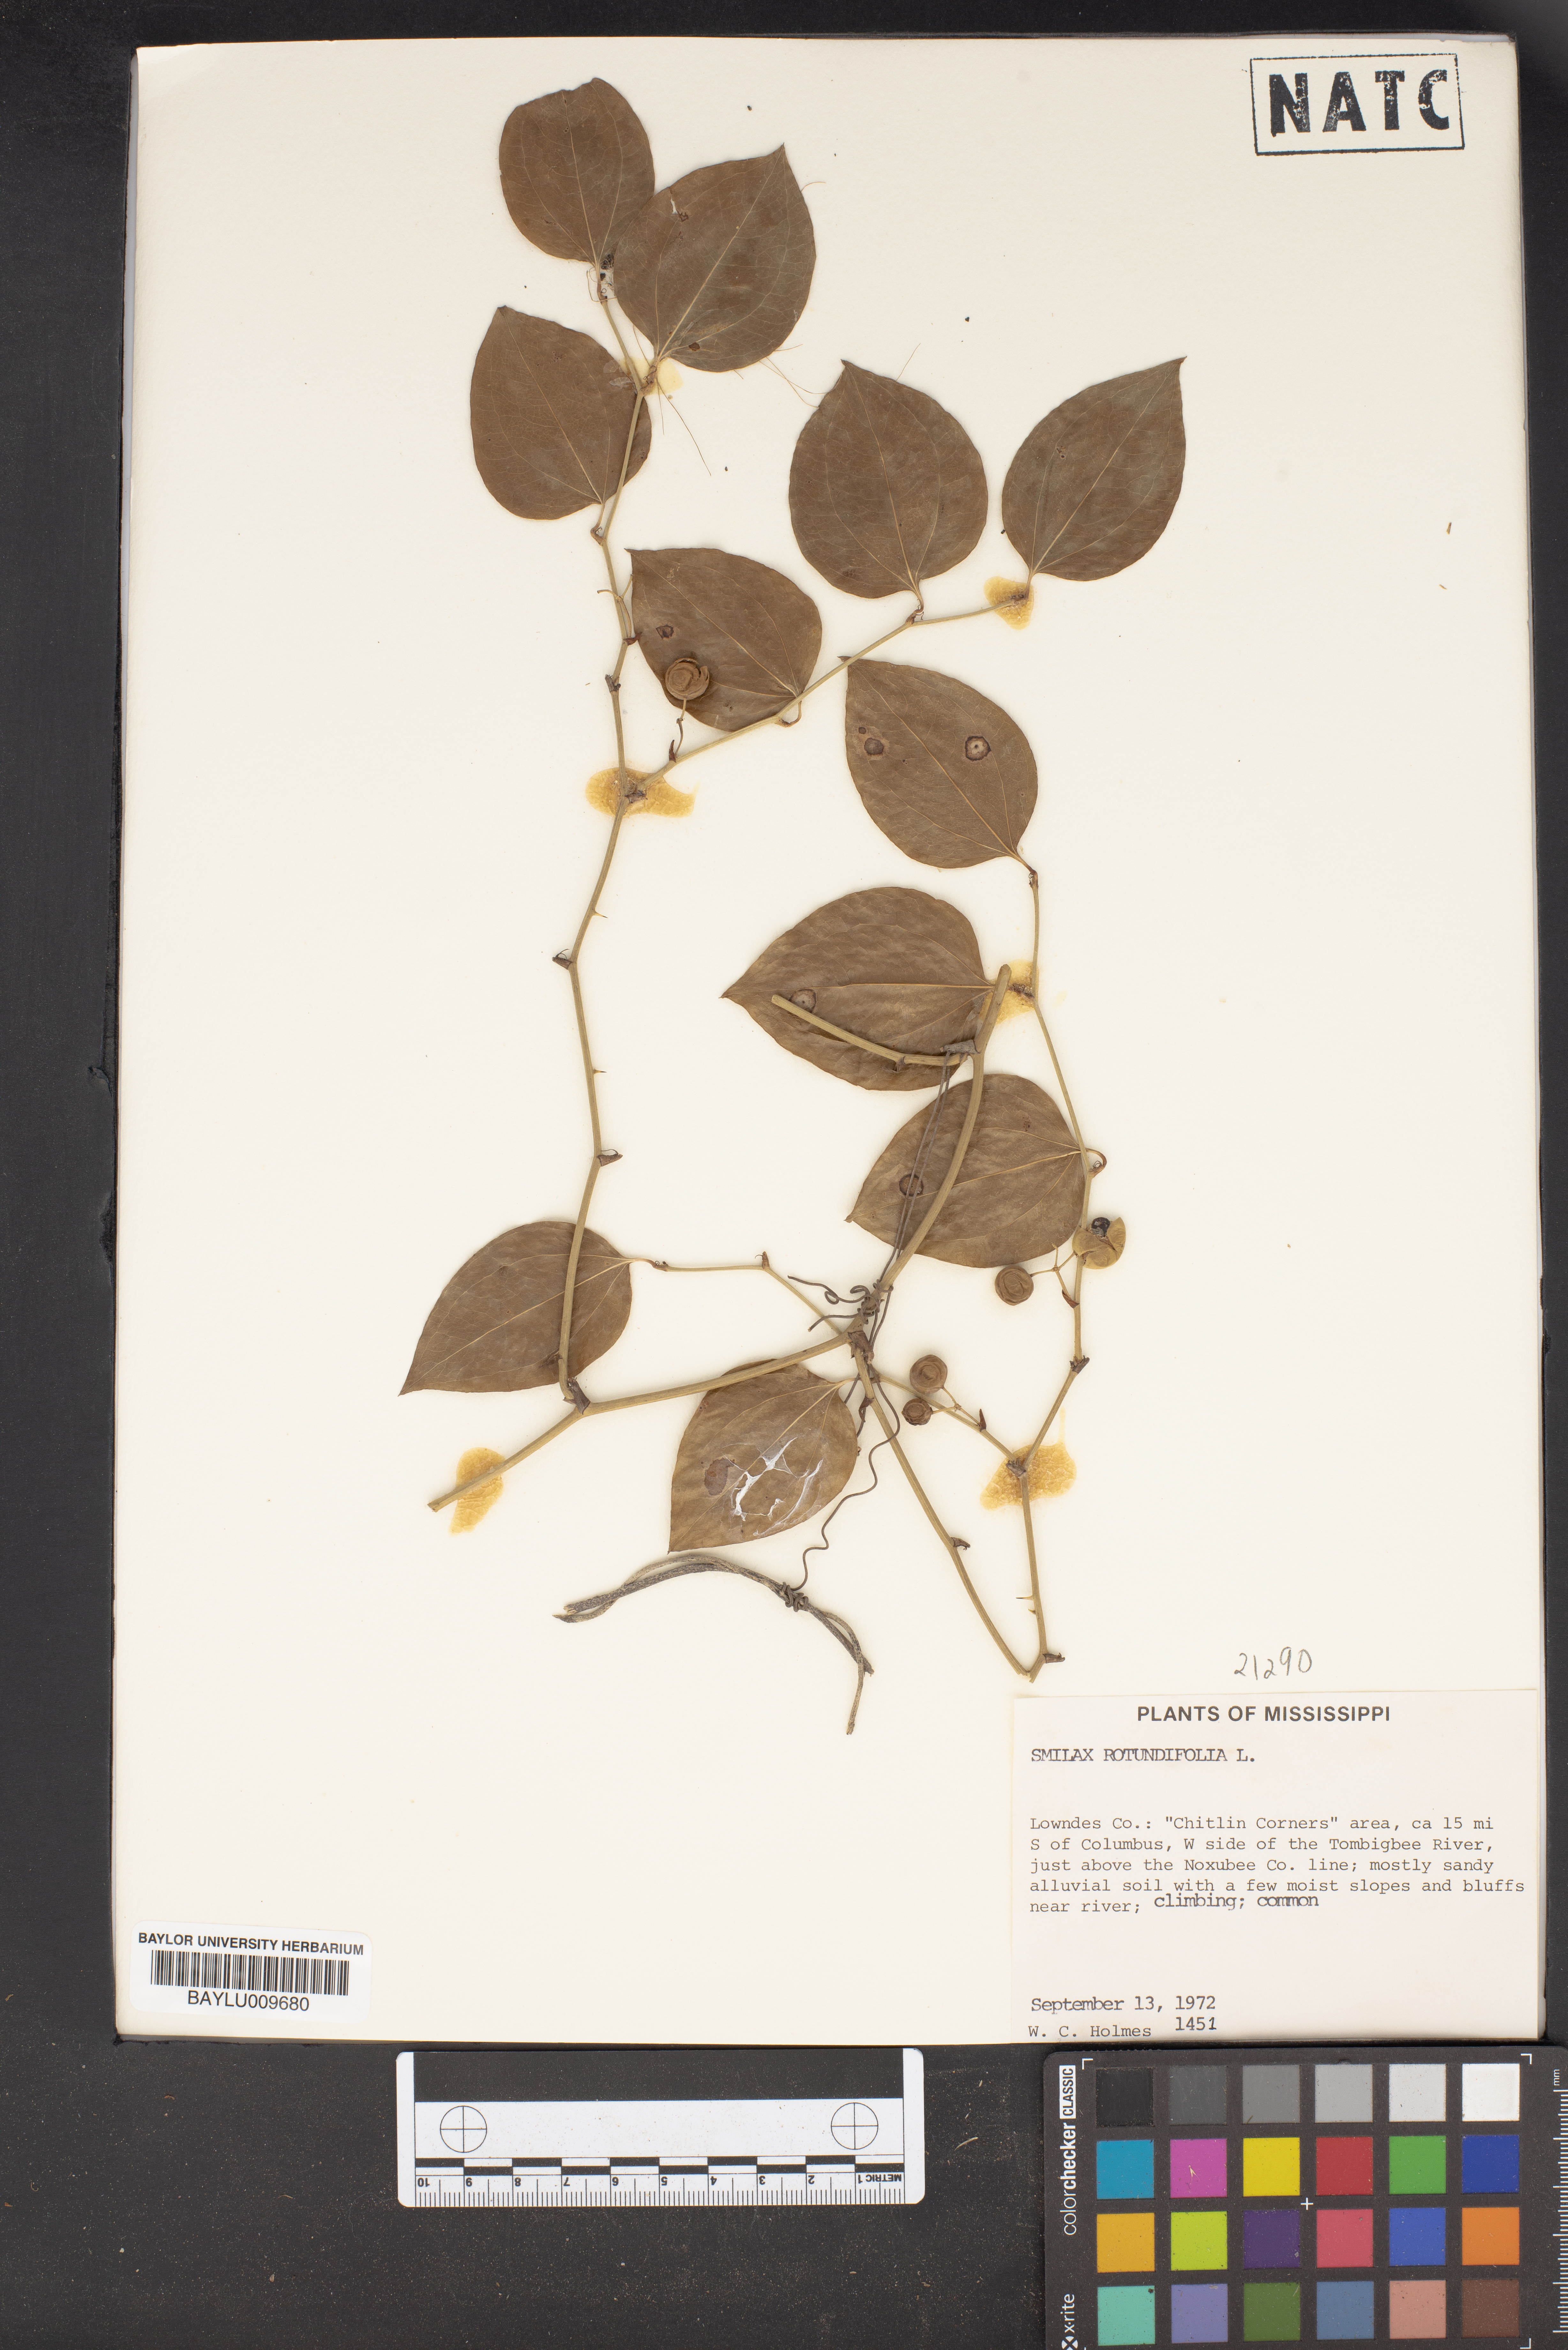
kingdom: Plantae
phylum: Tracheophyta
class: Liliopsida
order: Liliales
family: Smilacaceae
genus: Smilax
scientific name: Smilax rotundifolia
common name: Bullbriar
